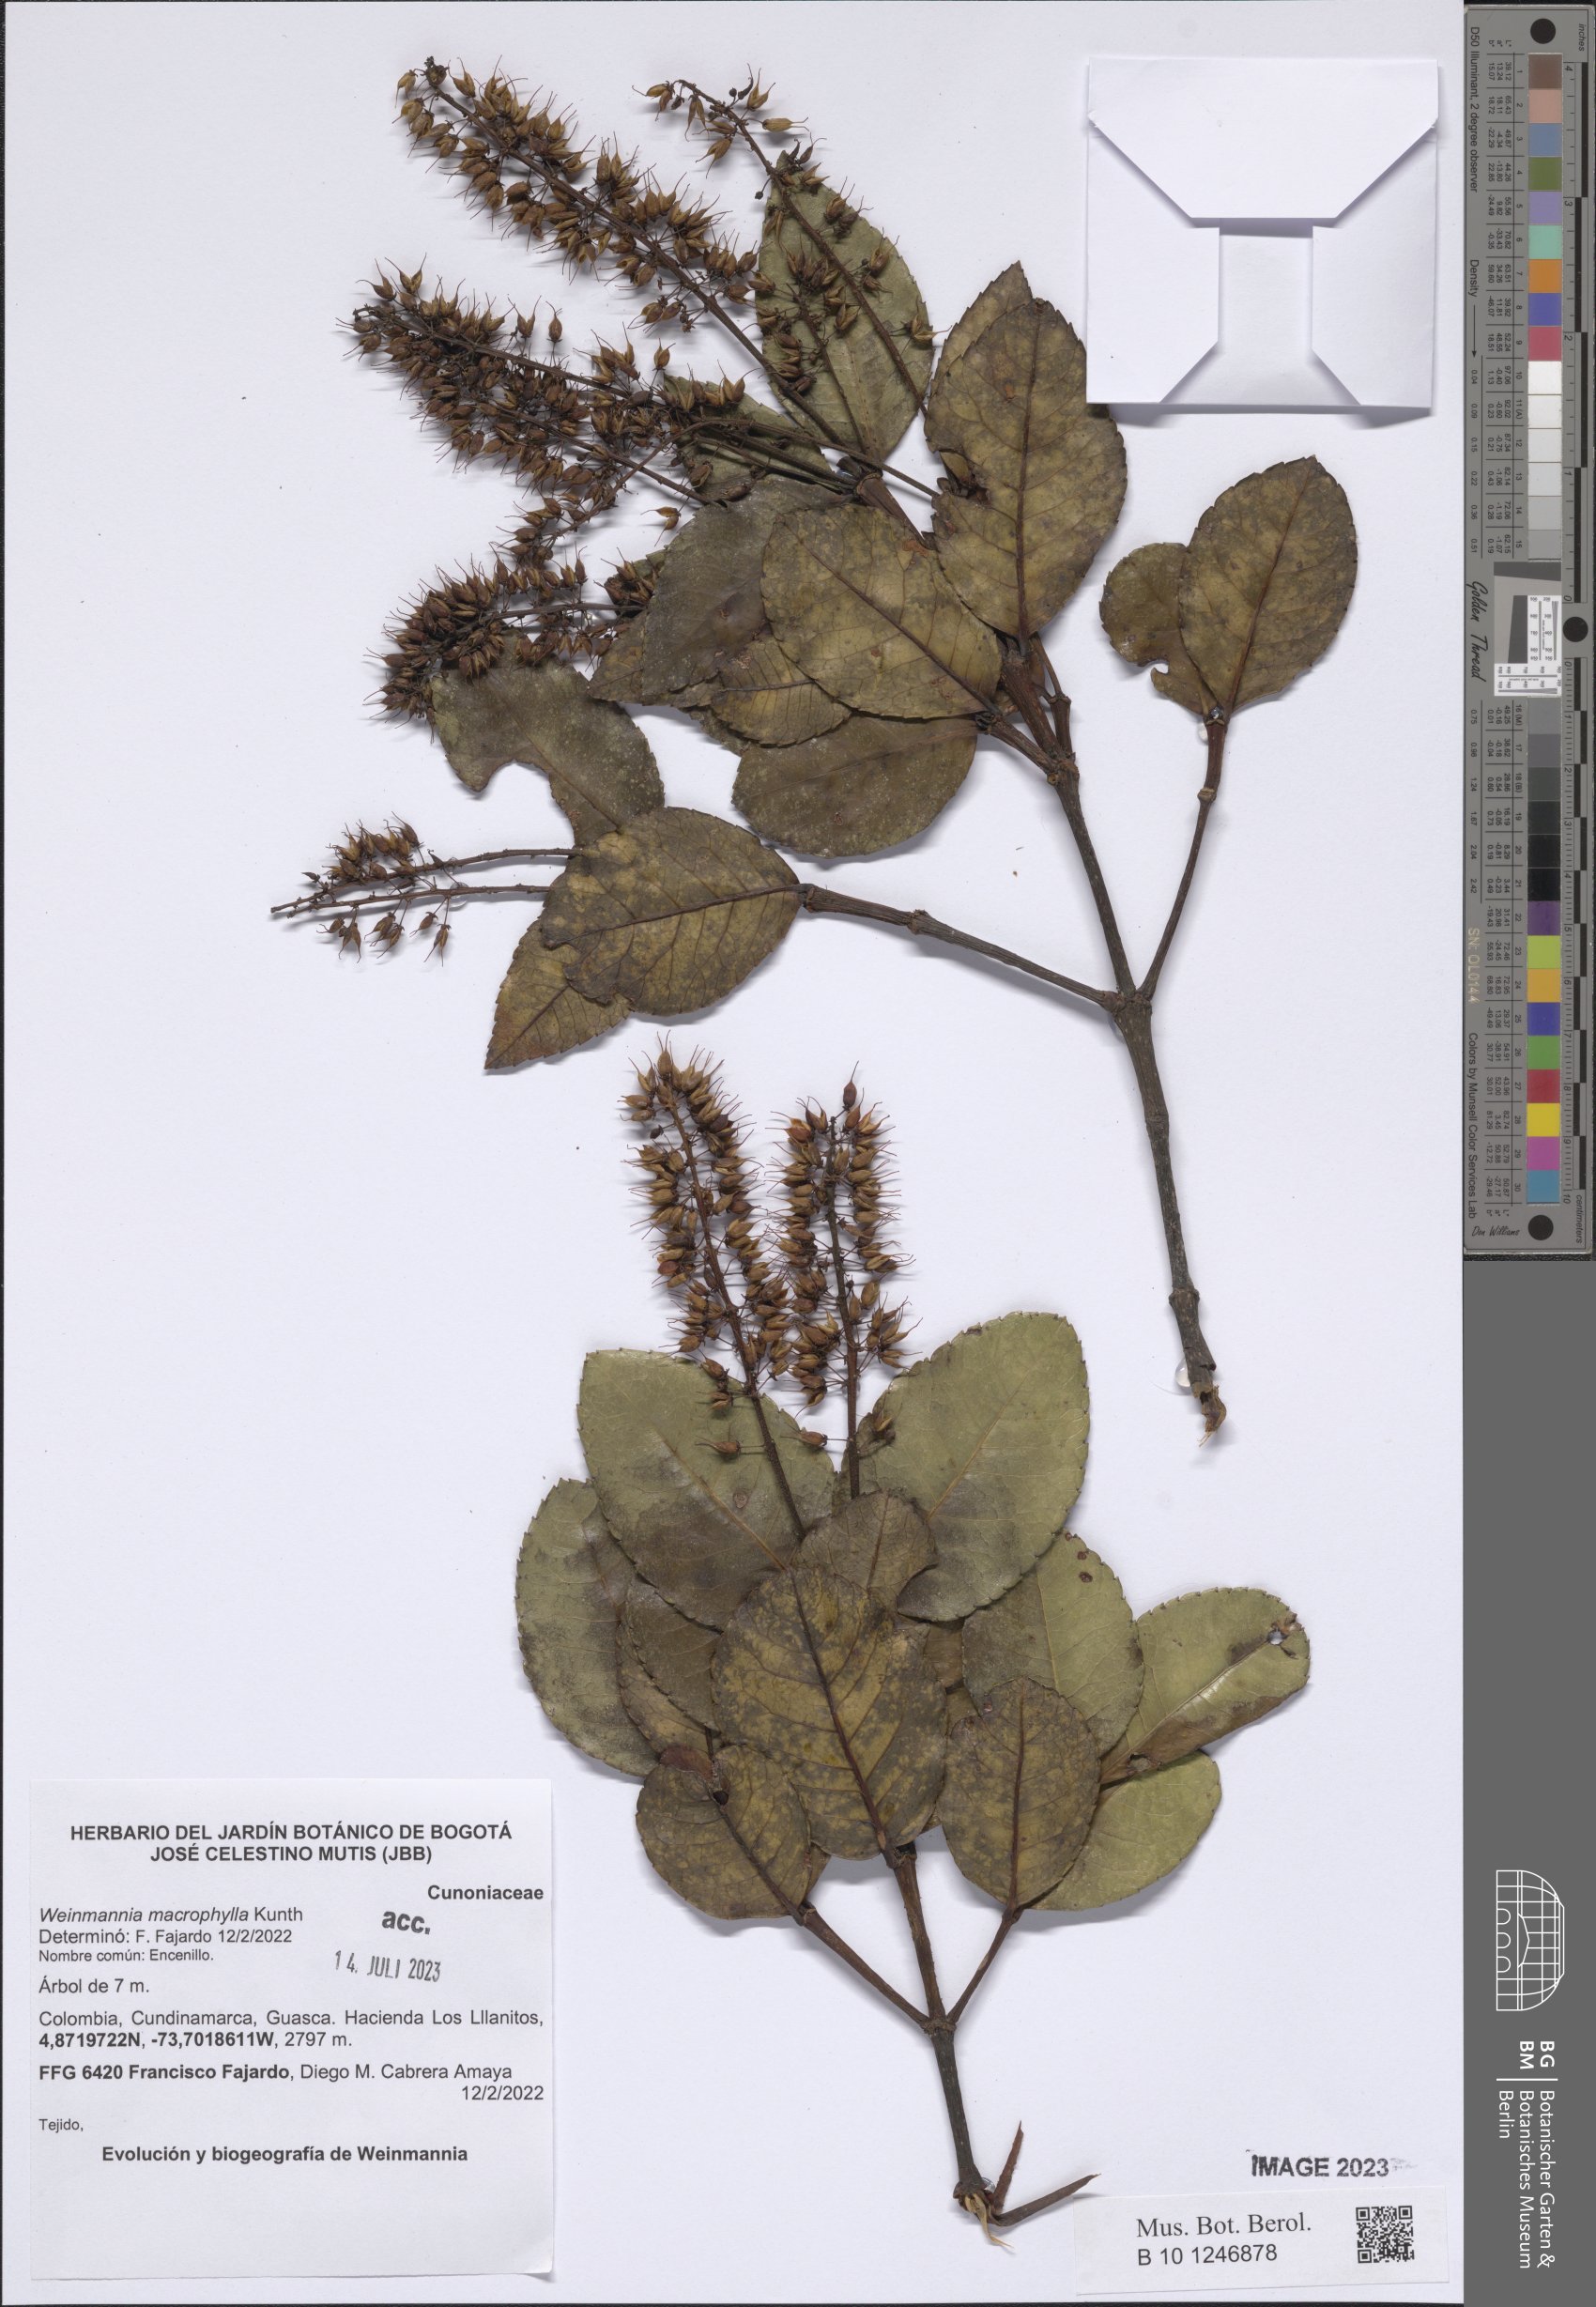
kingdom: Plantae
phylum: Tracheophyta
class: Magnoliopsida
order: Oxalidales
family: Cunoniaceae
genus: Weinmannia
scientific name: Weinmannia macrophylla
